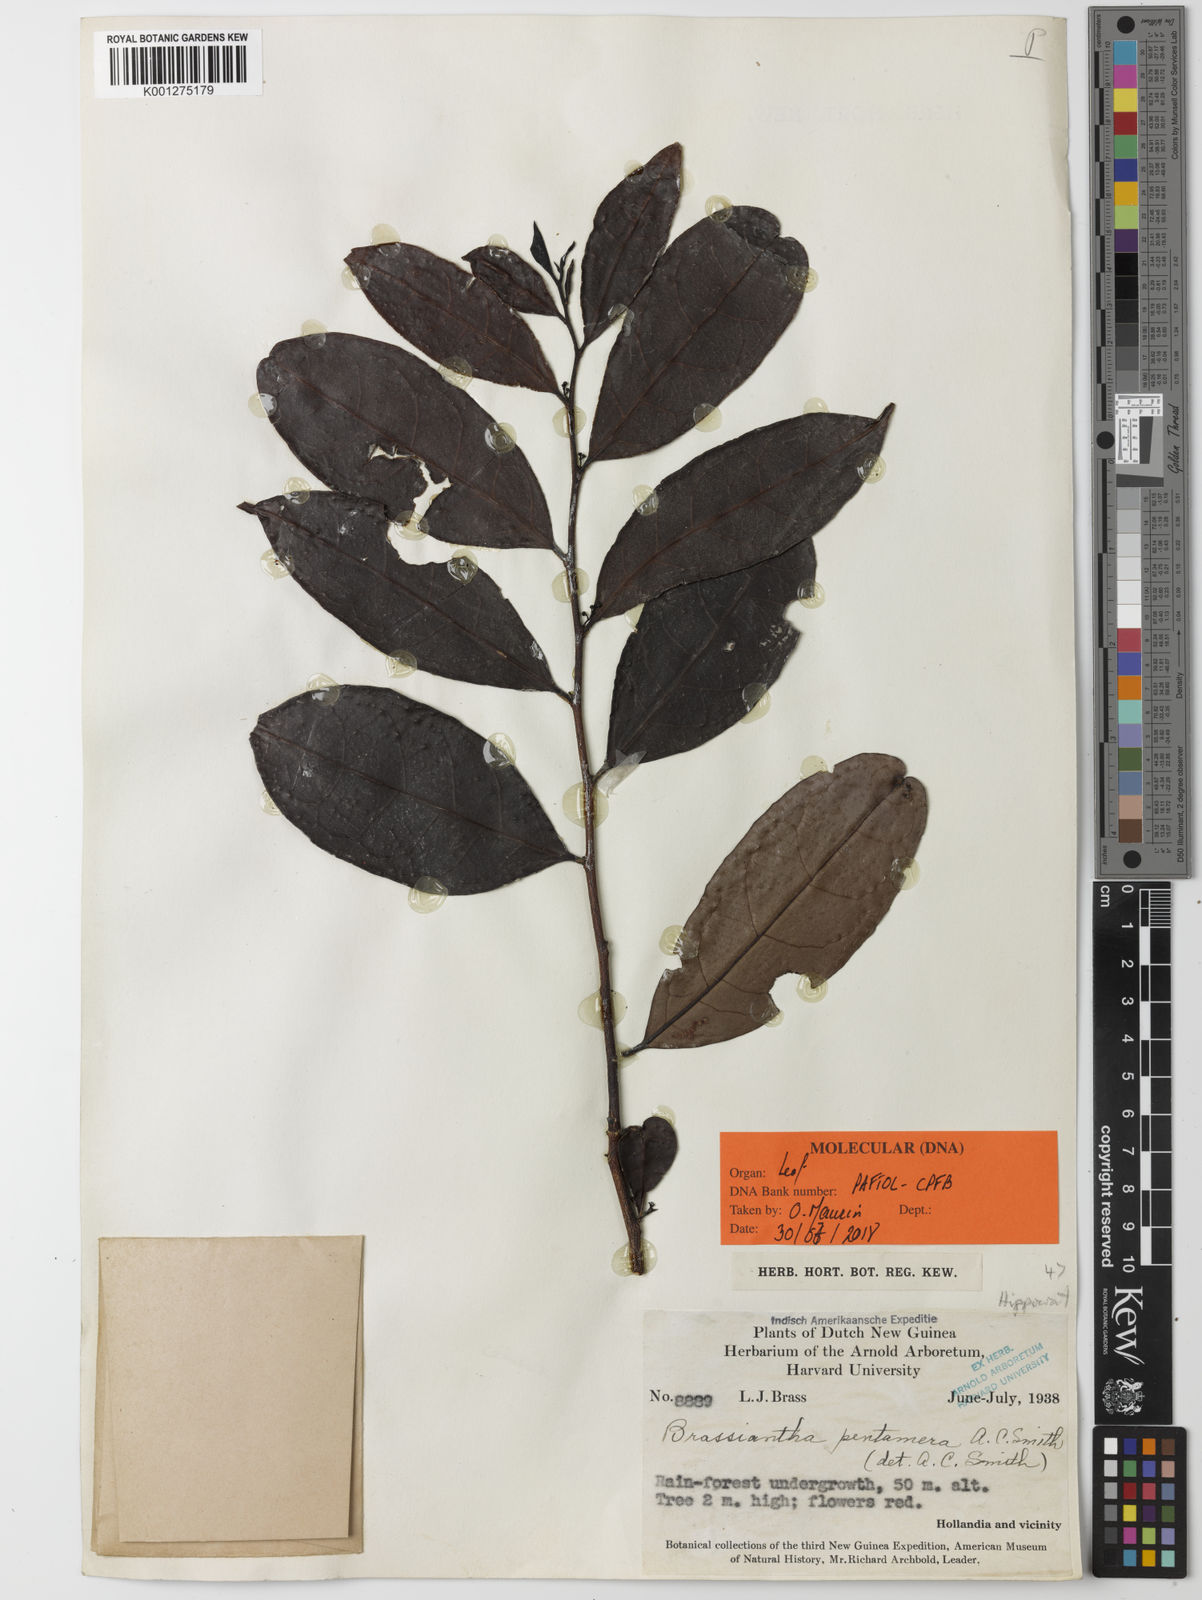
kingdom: Plantae
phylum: Tracheophyta
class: Magnoliopsida
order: Celastrales
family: Celastraceae
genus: Brassiantha
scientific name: Brassiantha pentamera
